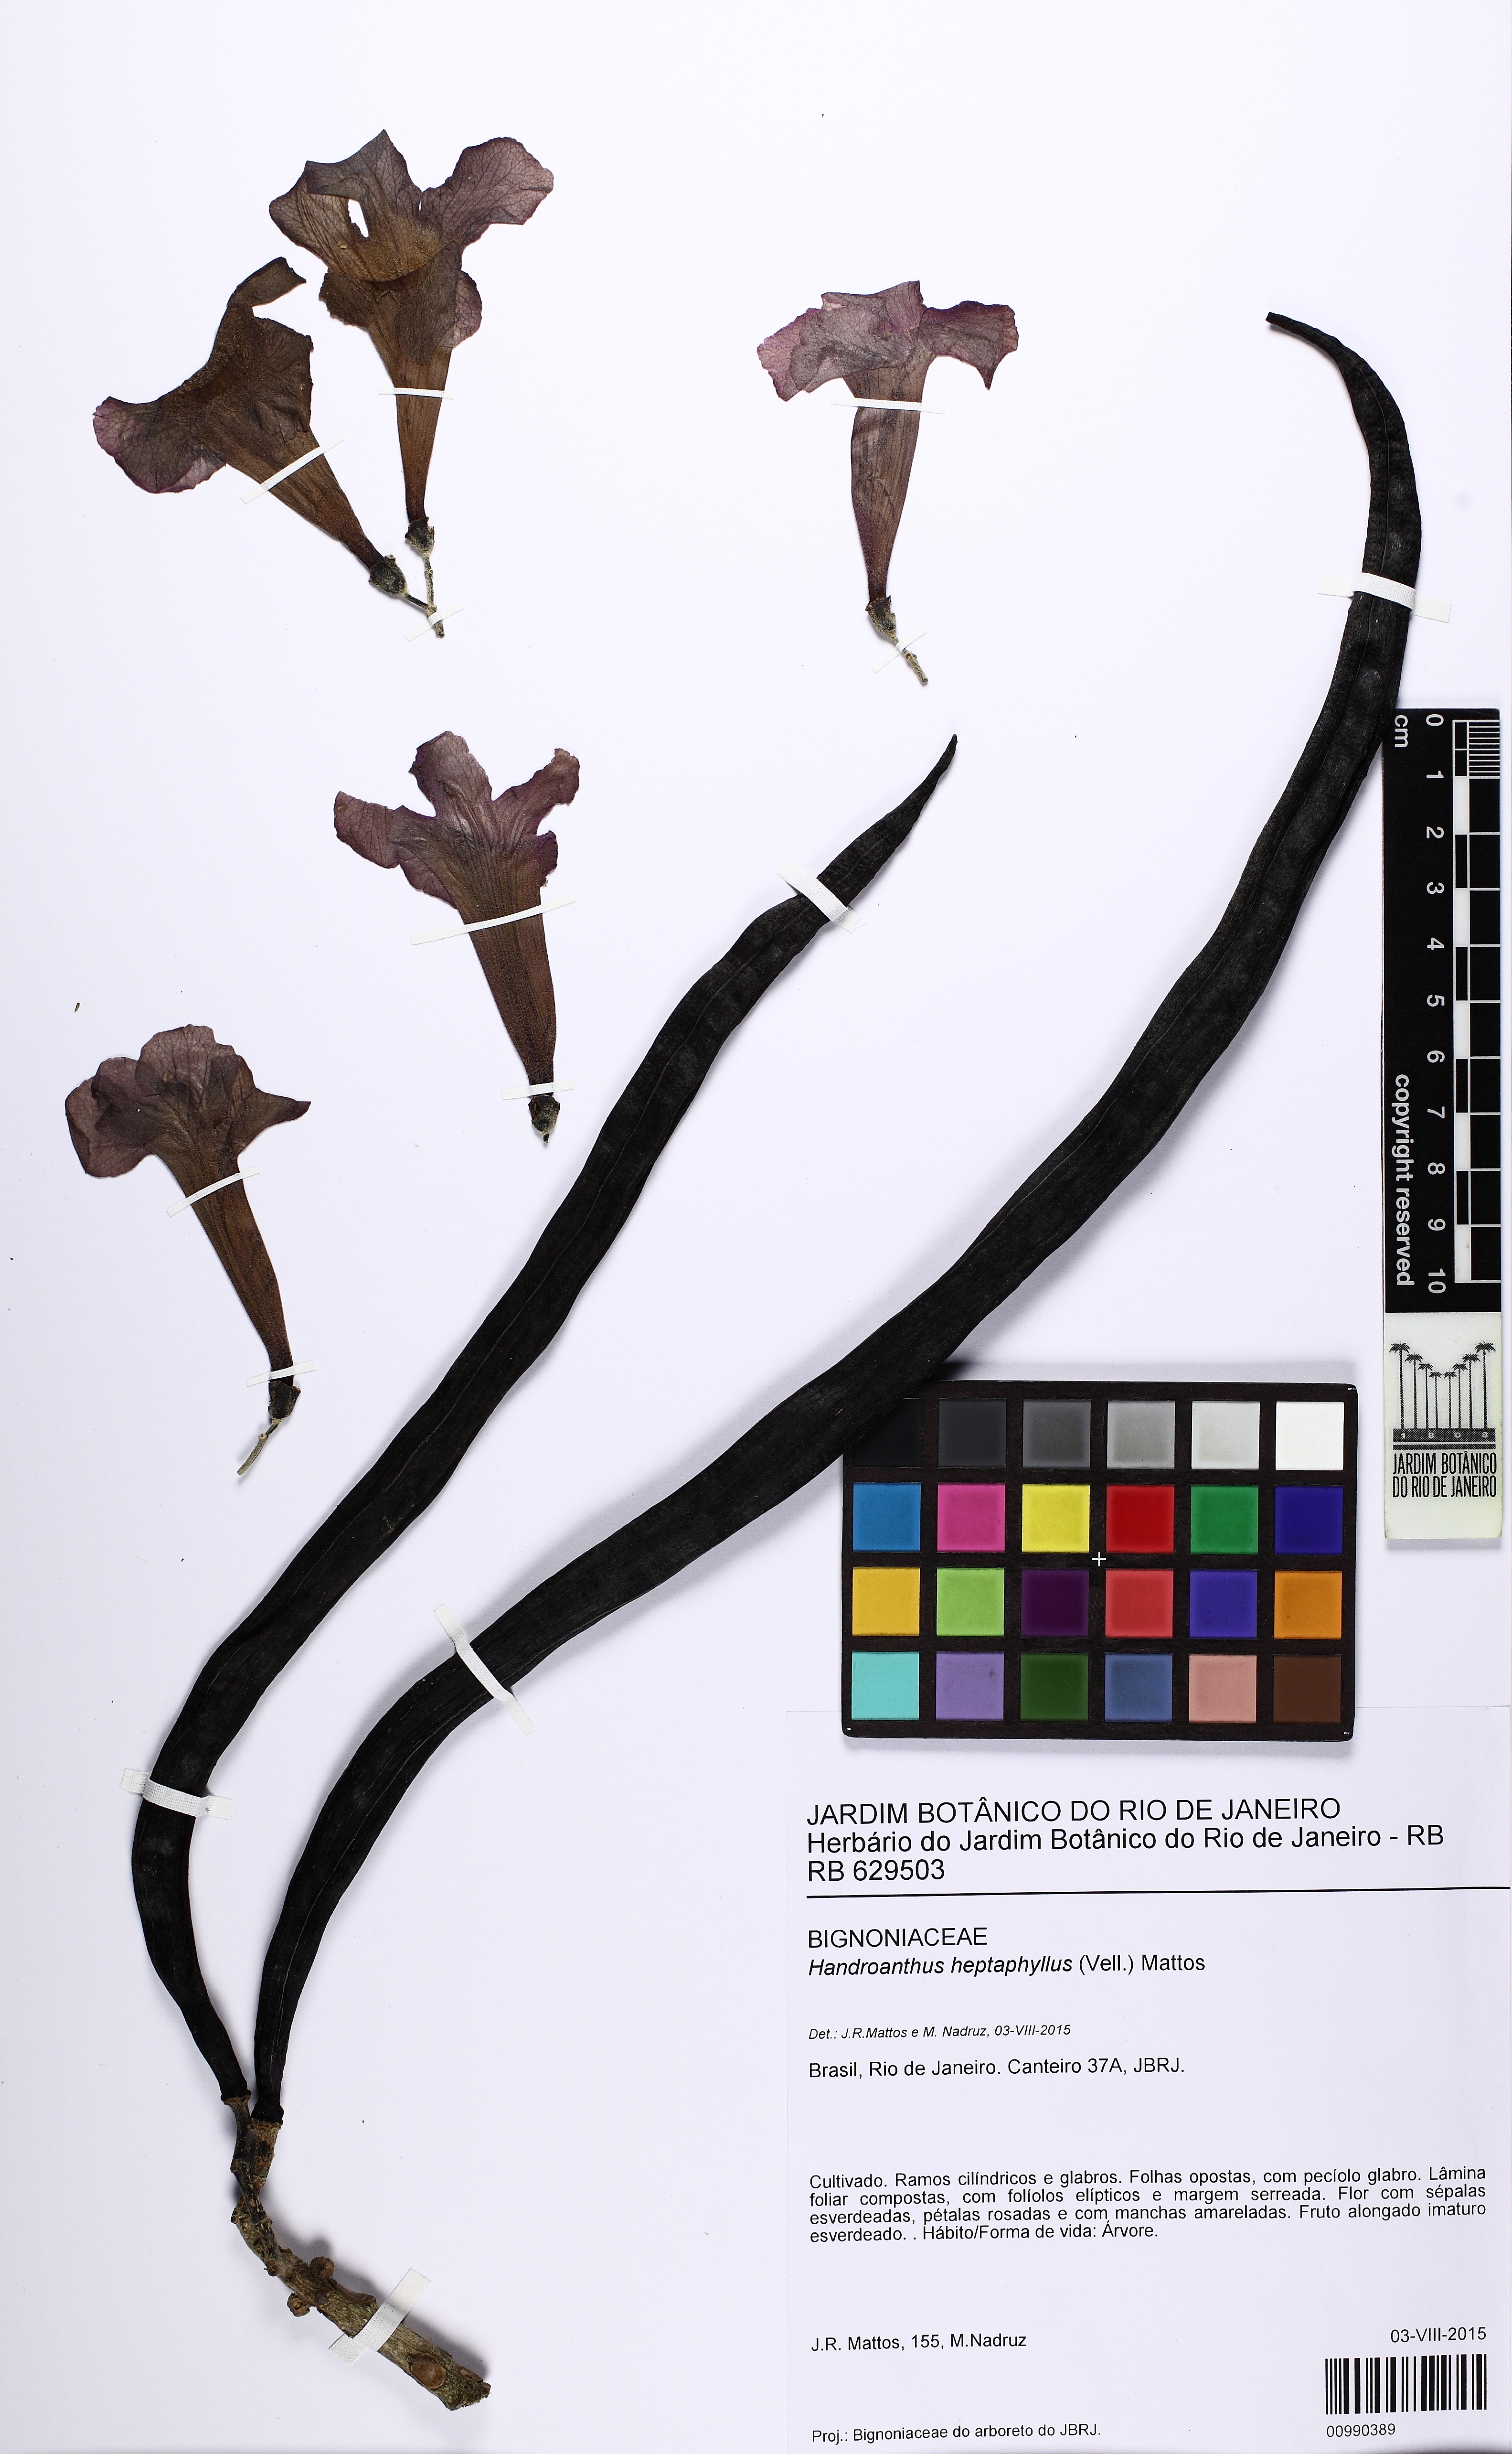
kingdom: Plantae
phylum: Tracheophyta
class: Magnoliopsida
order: Lamiales
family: Bignoniaceae
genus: Handroanthus
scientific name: Handroanthus heptaphyllus
